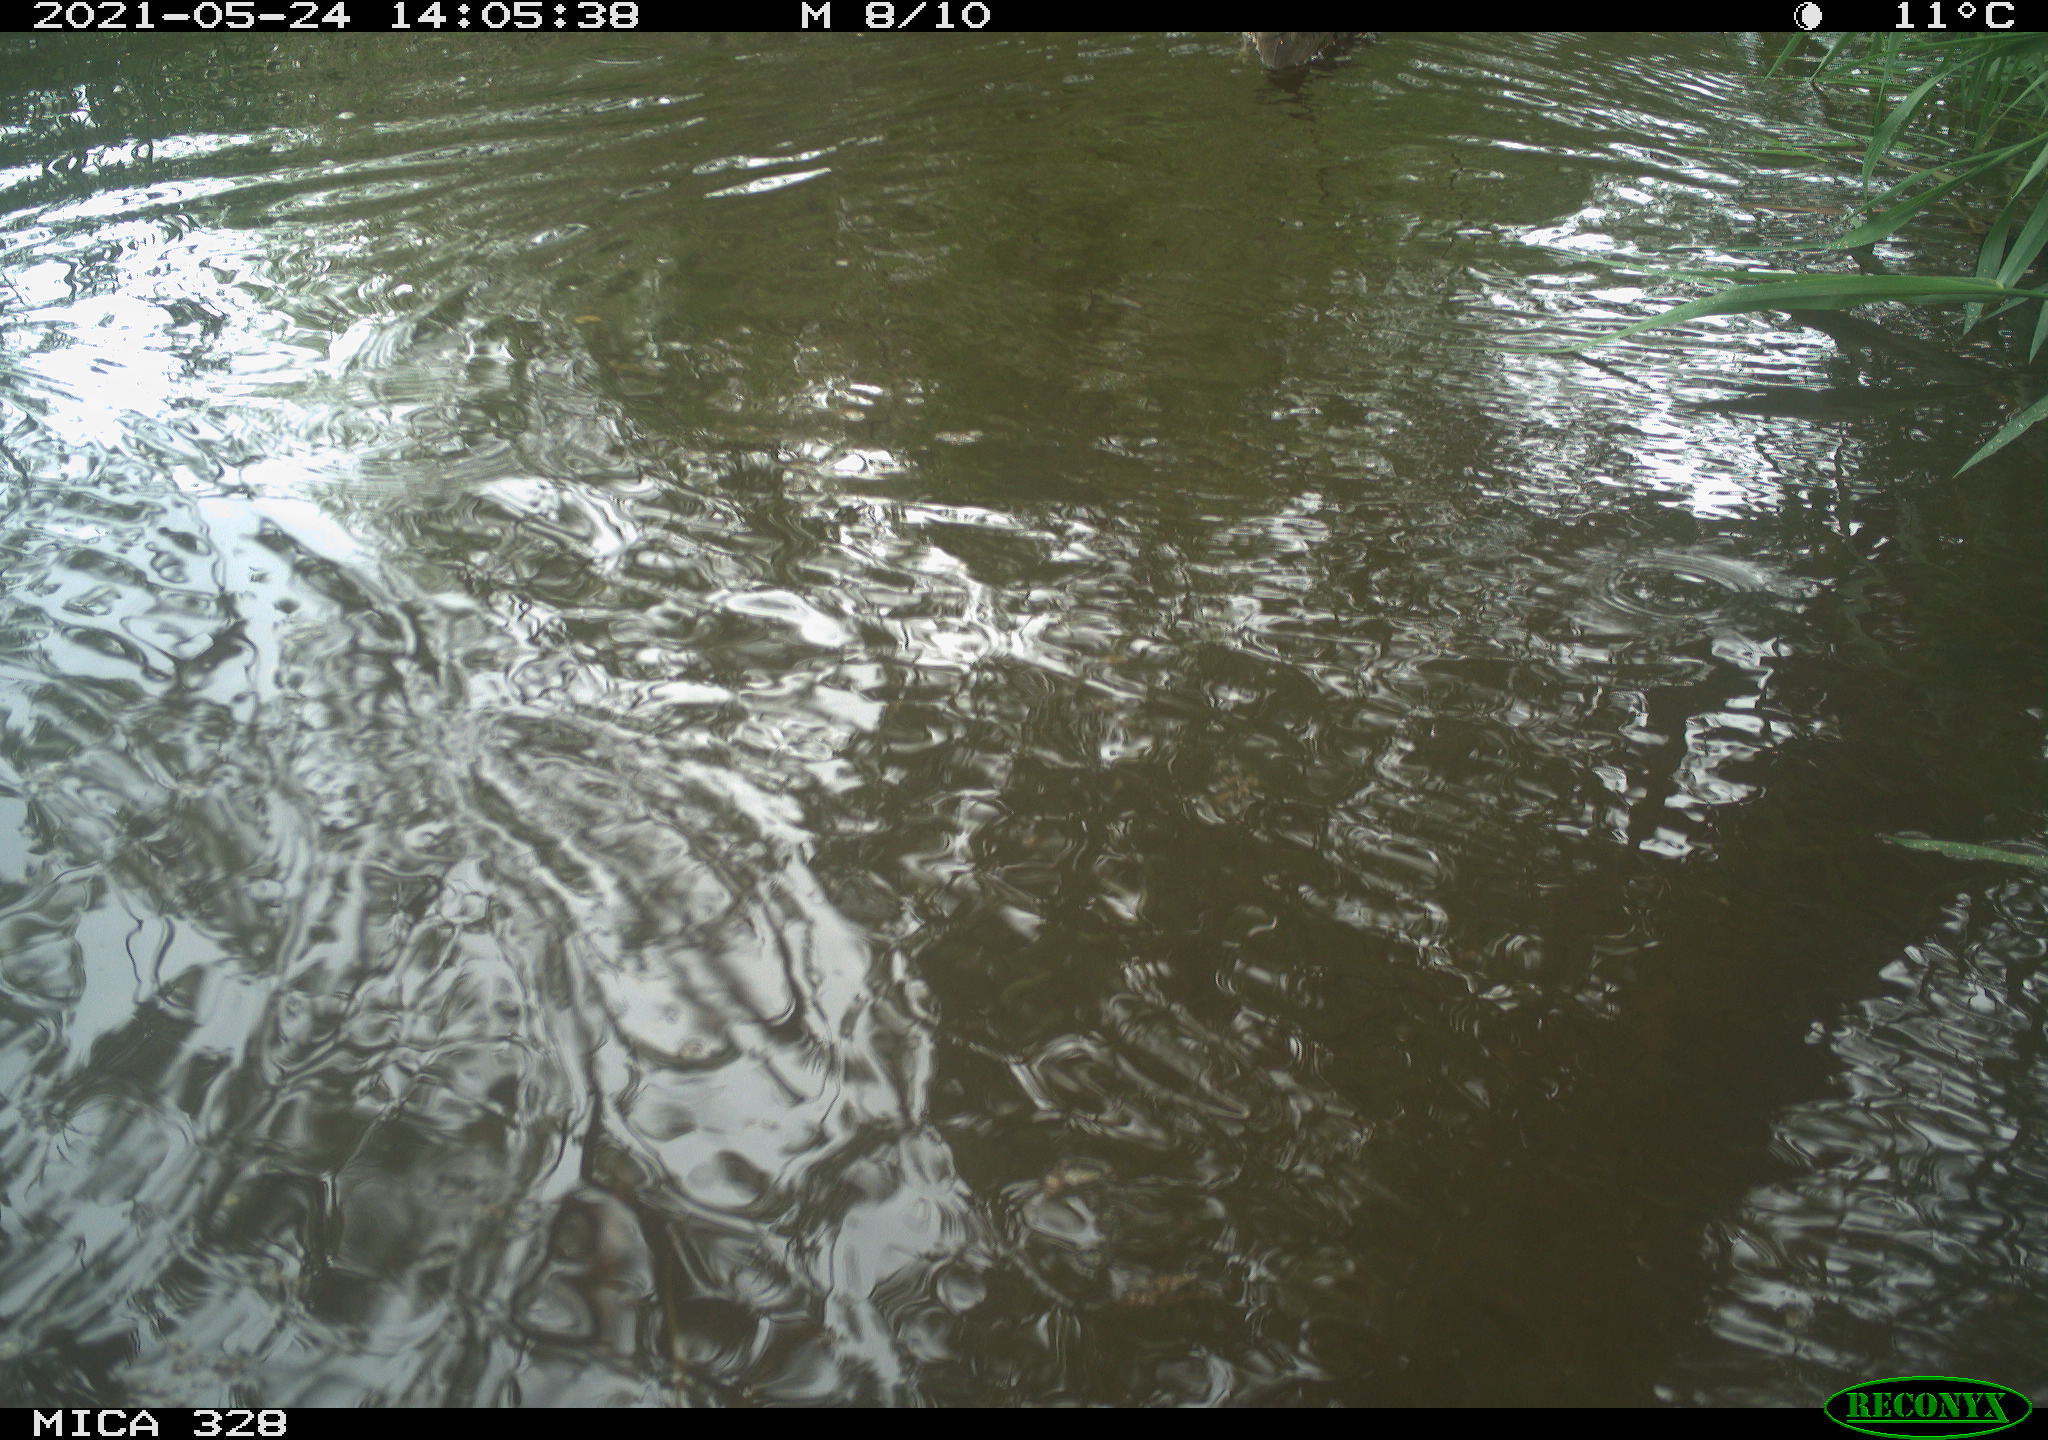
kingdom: Animalia
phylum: Chordata
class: Aves
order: Anseriformes
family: Anatidae
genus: Aix
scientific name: Aix galericulata
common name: Mandarin duck
